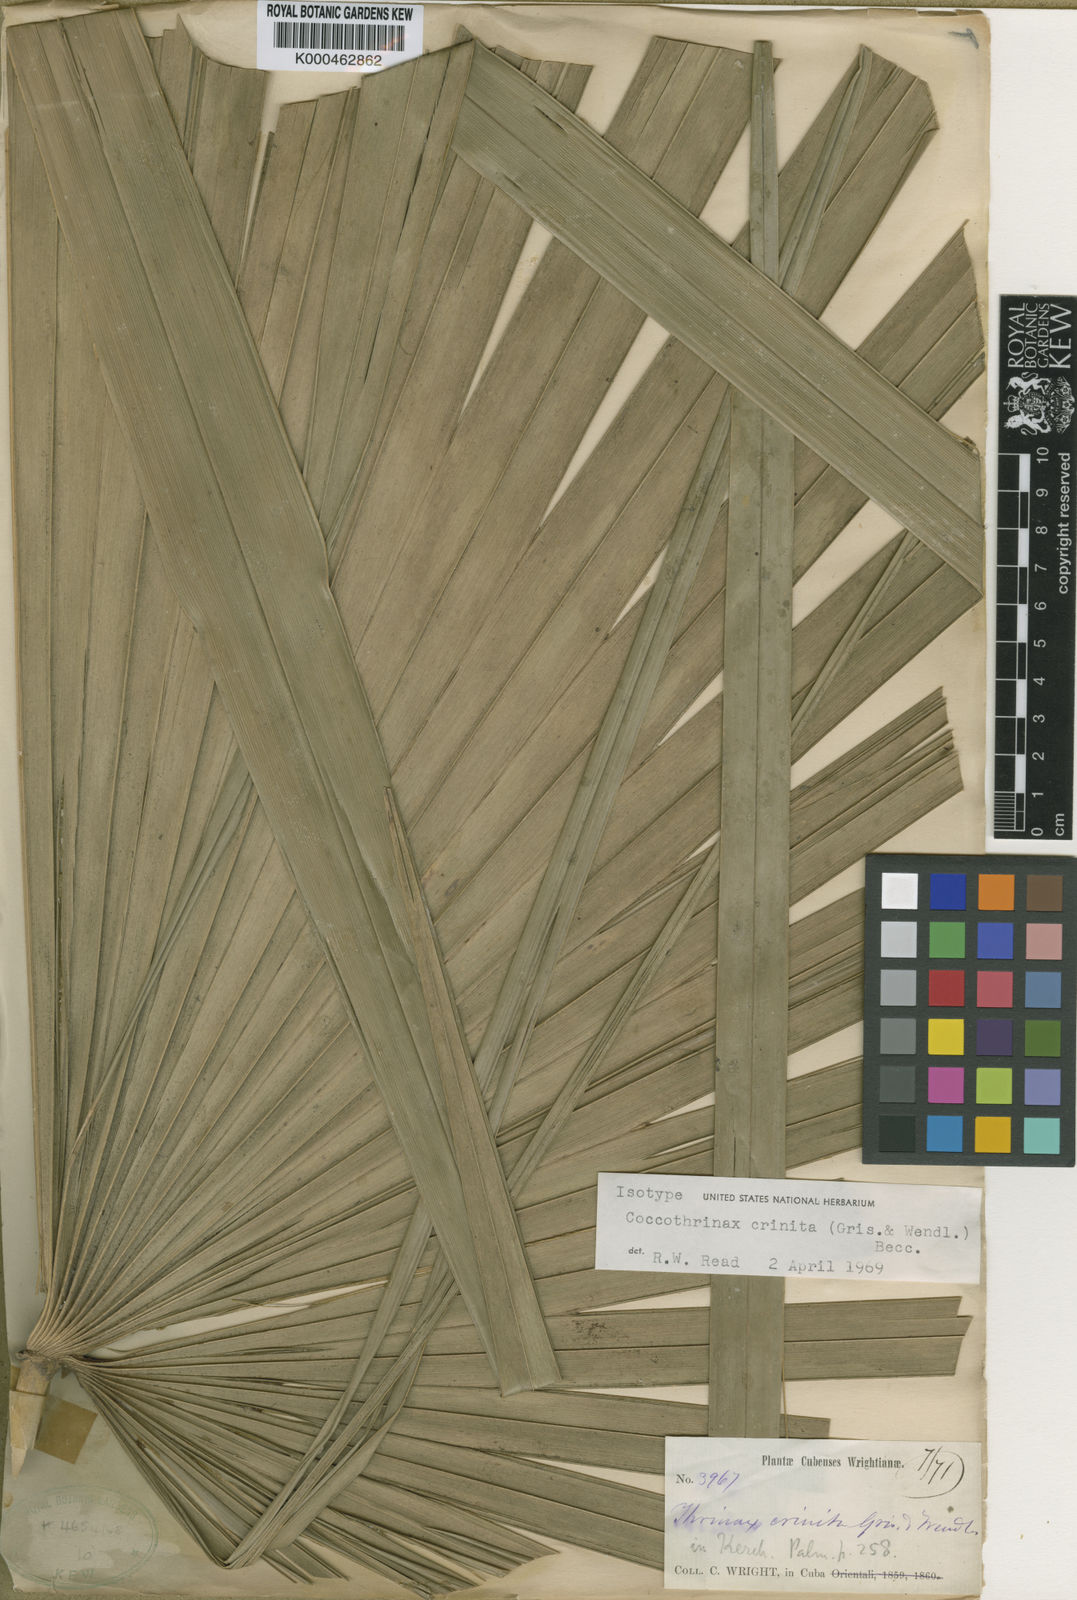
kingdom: Plantae
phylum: Tracheophyta
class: Liliopsida
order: Arecales
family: Arecaceae
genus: Coccothrinax
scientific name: Coccothrinax crinita
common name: Thatch palm
